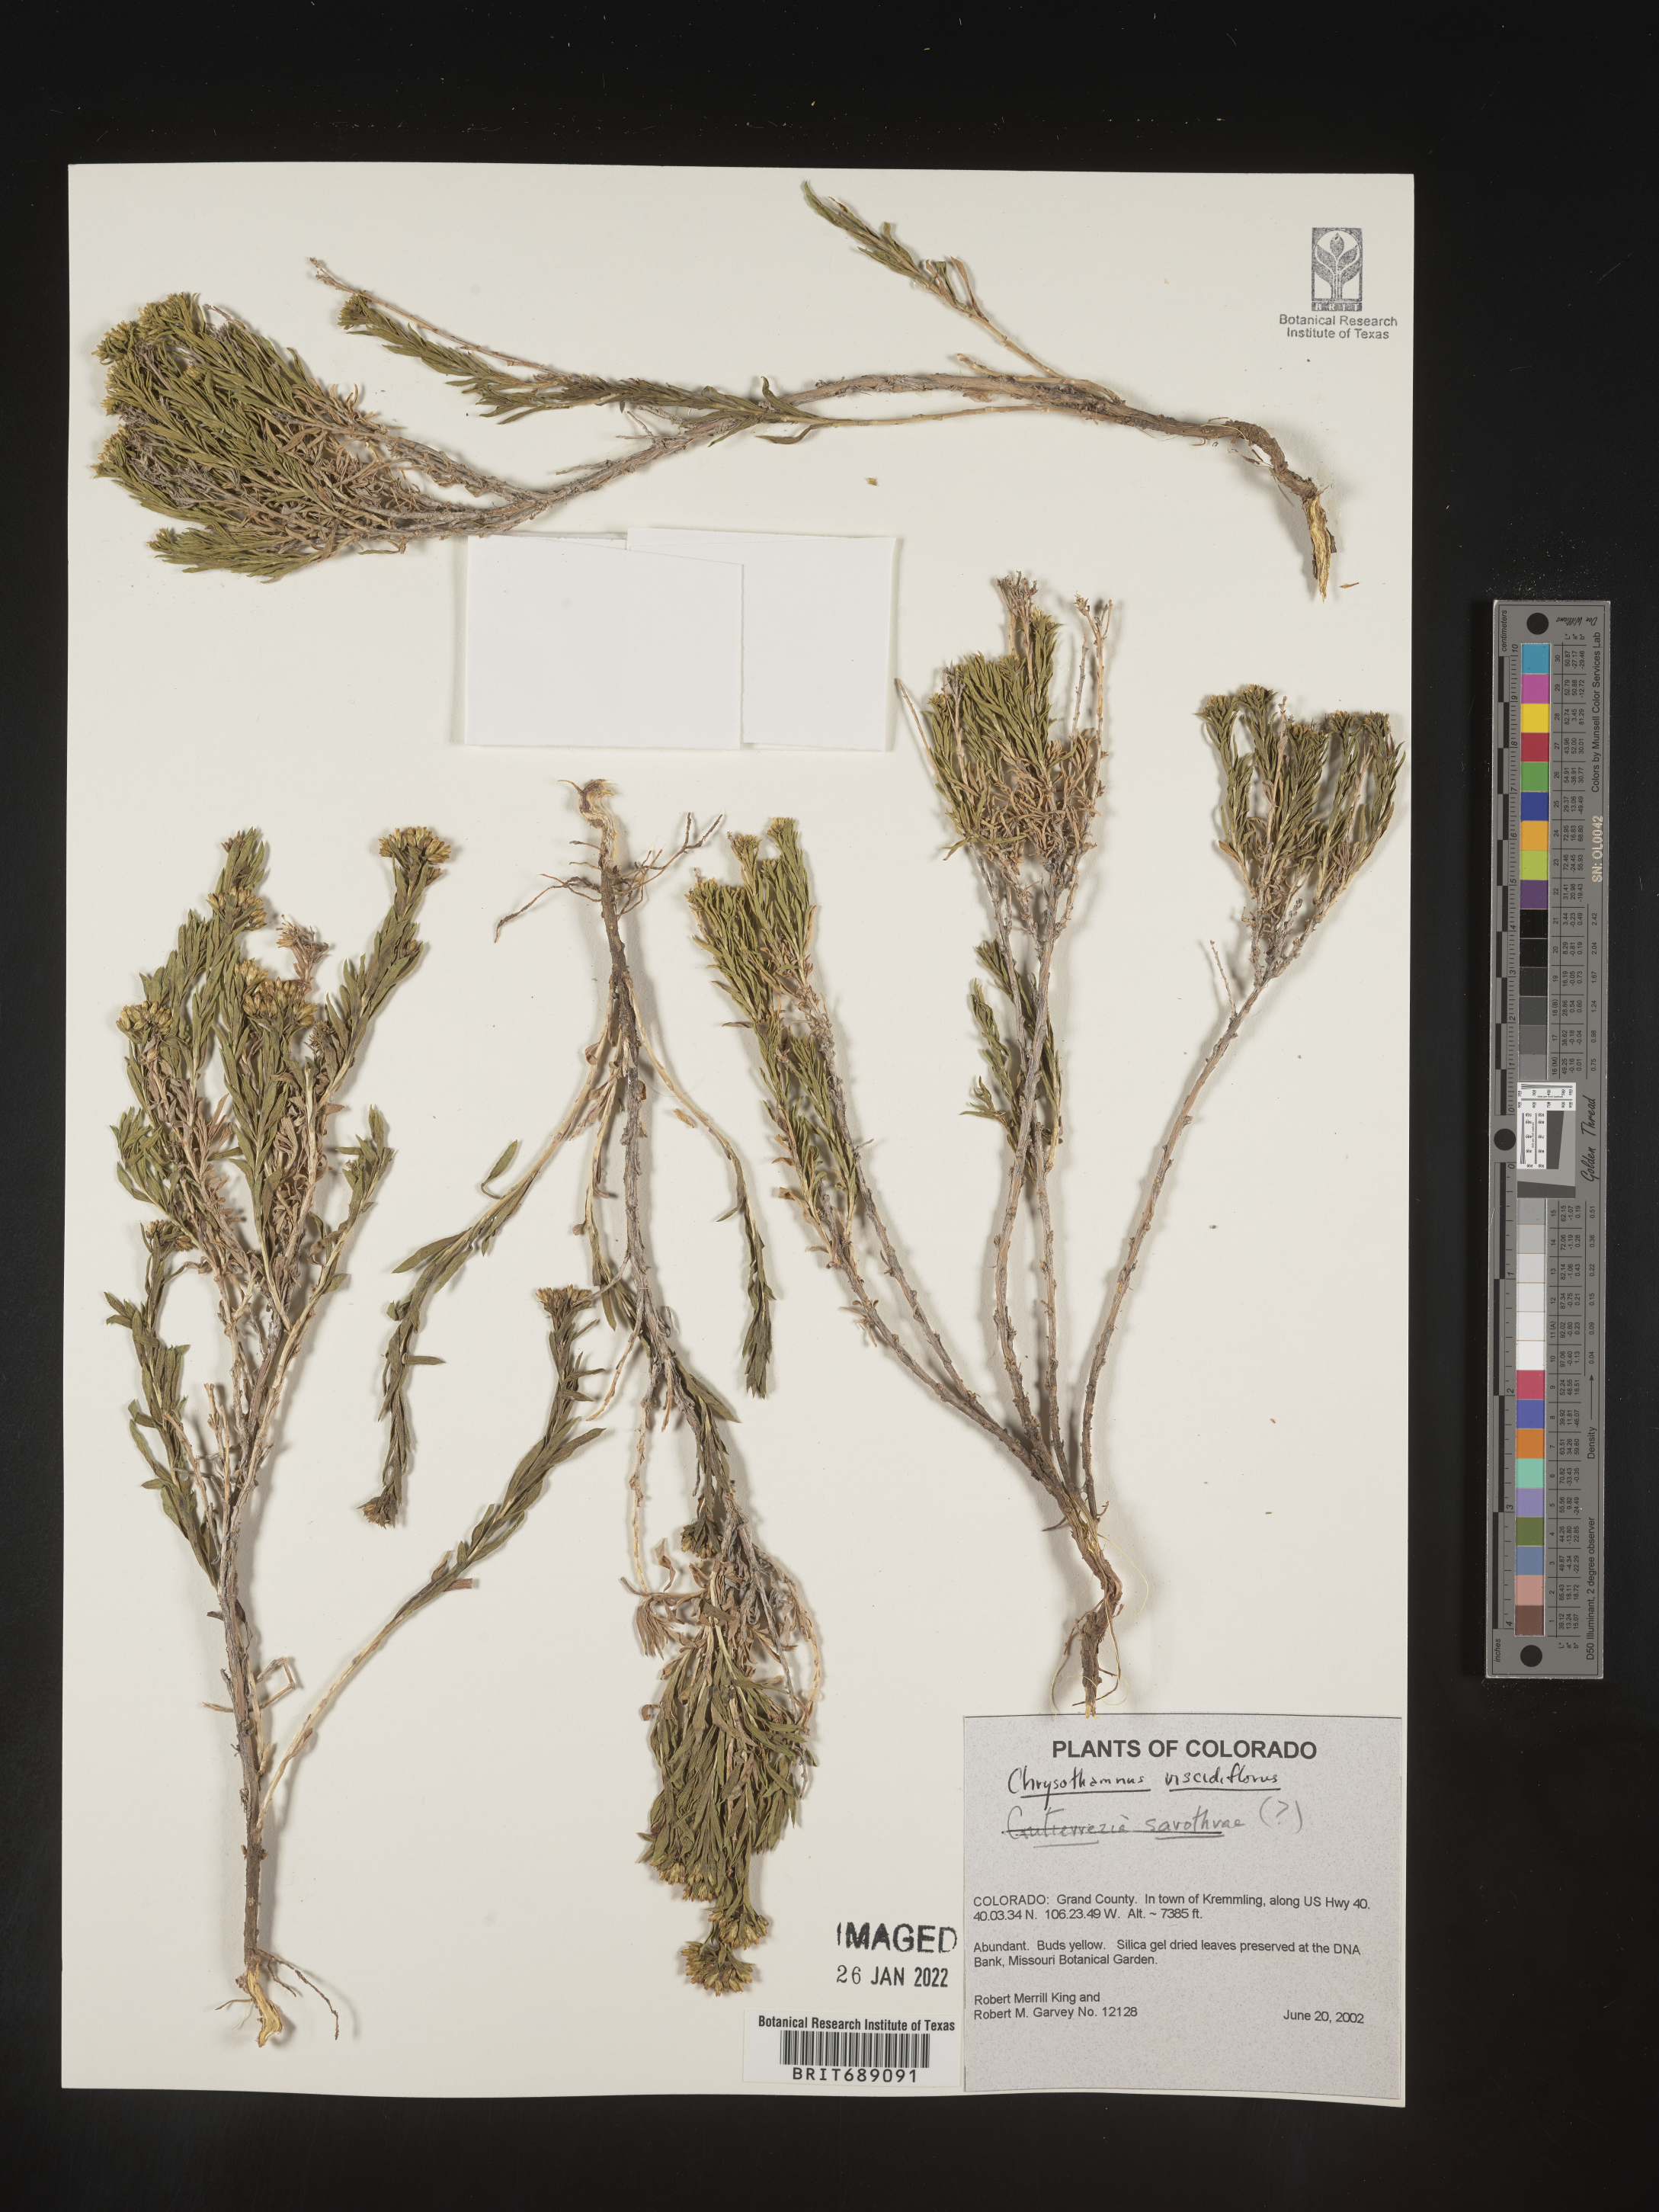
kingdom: Plantae
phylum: Tracheophyta
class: Magnoliopsida
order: Asterales
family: Asteraceae
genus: Chrysothamnus
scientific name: Chrysothamnus viscidiflorus
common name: Yellow rabbitbrush
